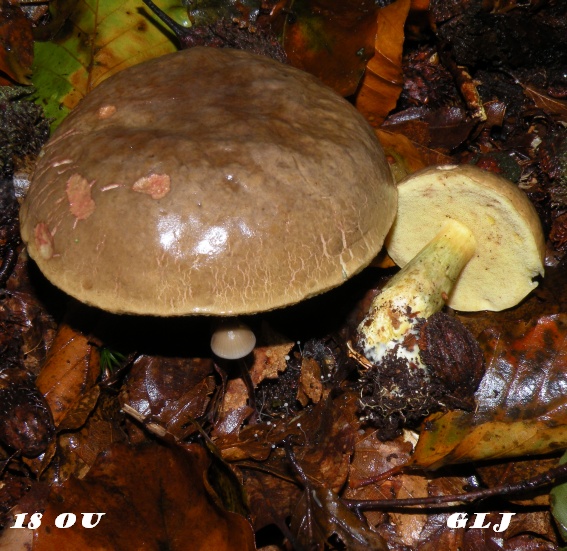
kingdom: Fungi
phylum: Basidiomycota
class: Agaricomycetes
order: Boletales
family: Boletaceae
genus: Xerocomellus
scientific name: Xerocomellus pruinatus
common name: dugget rørhat
